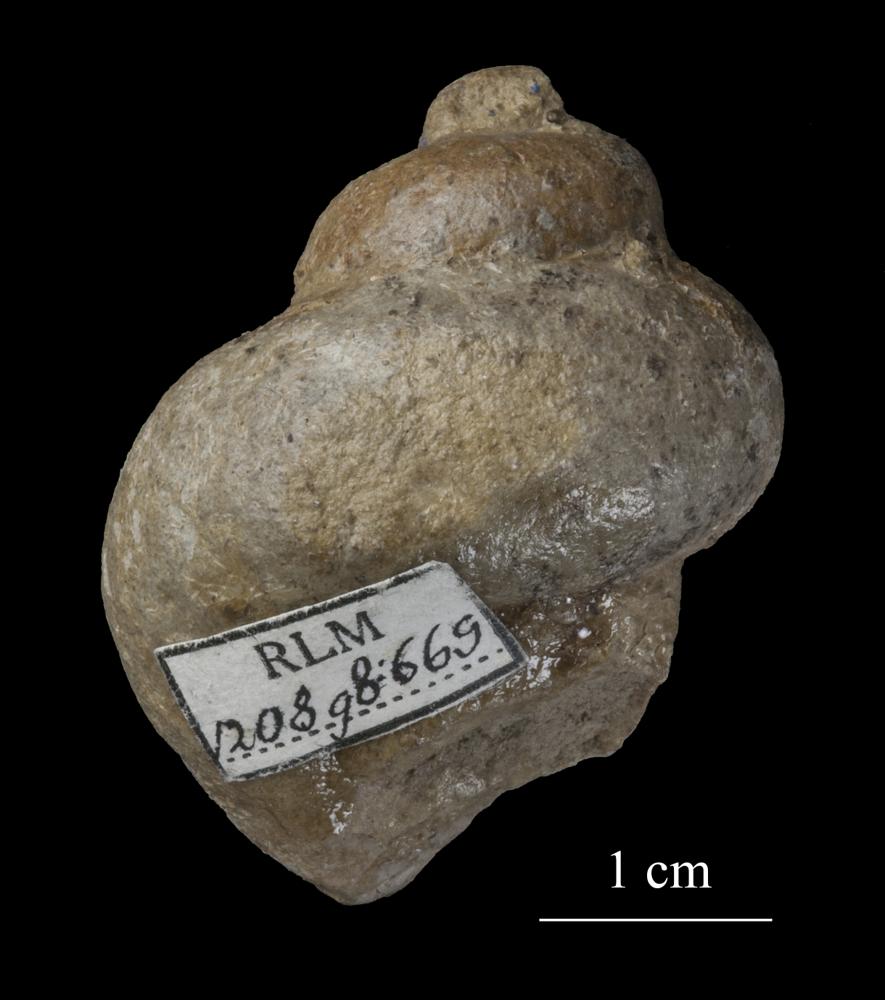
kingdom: Animalia
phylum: Mollusca
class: Gastropoda
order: Trochida
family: Turbinidae
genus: Turbo
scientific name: Turbo
